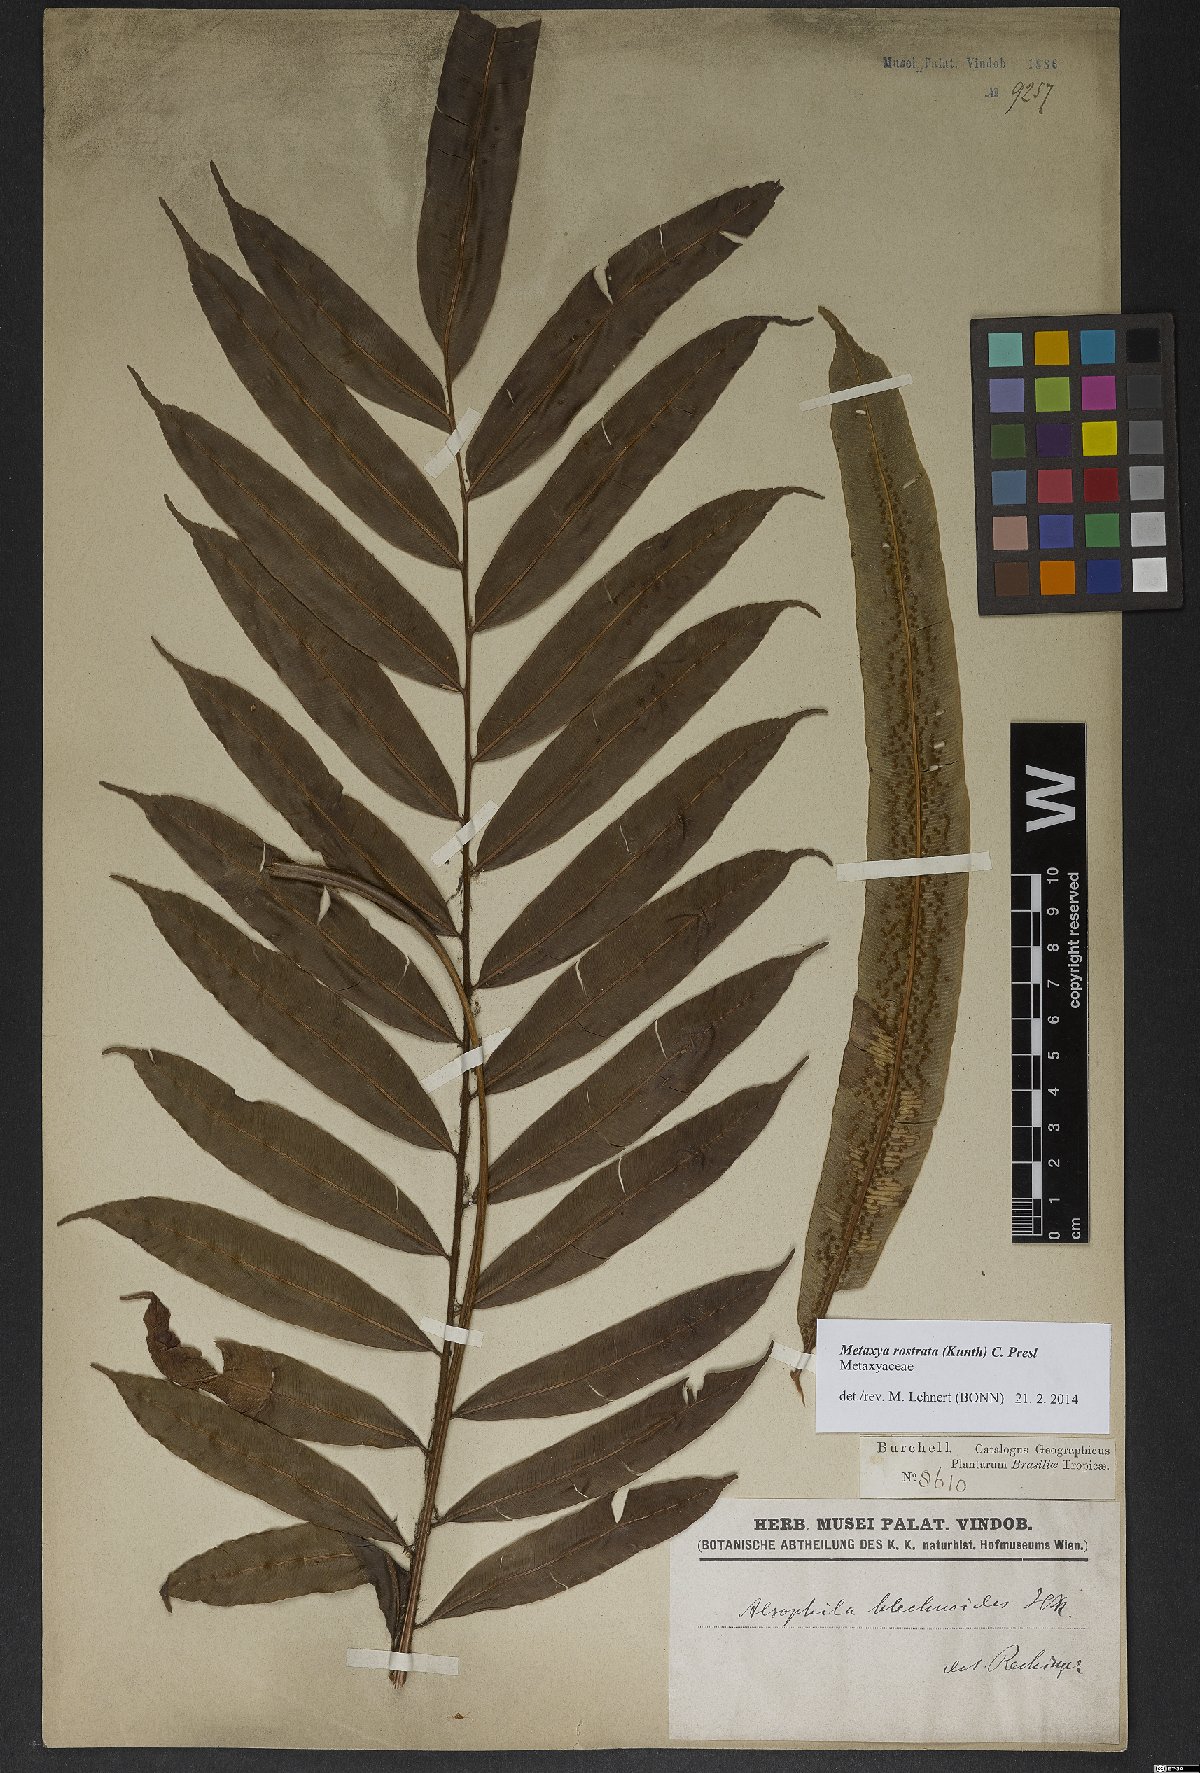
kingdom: Plantae
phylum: Tracheophyta
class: Polypodiopsida
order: Cyatheales
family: Metaxyaceae
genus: Metaxya
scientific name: Metaxya rostrata
